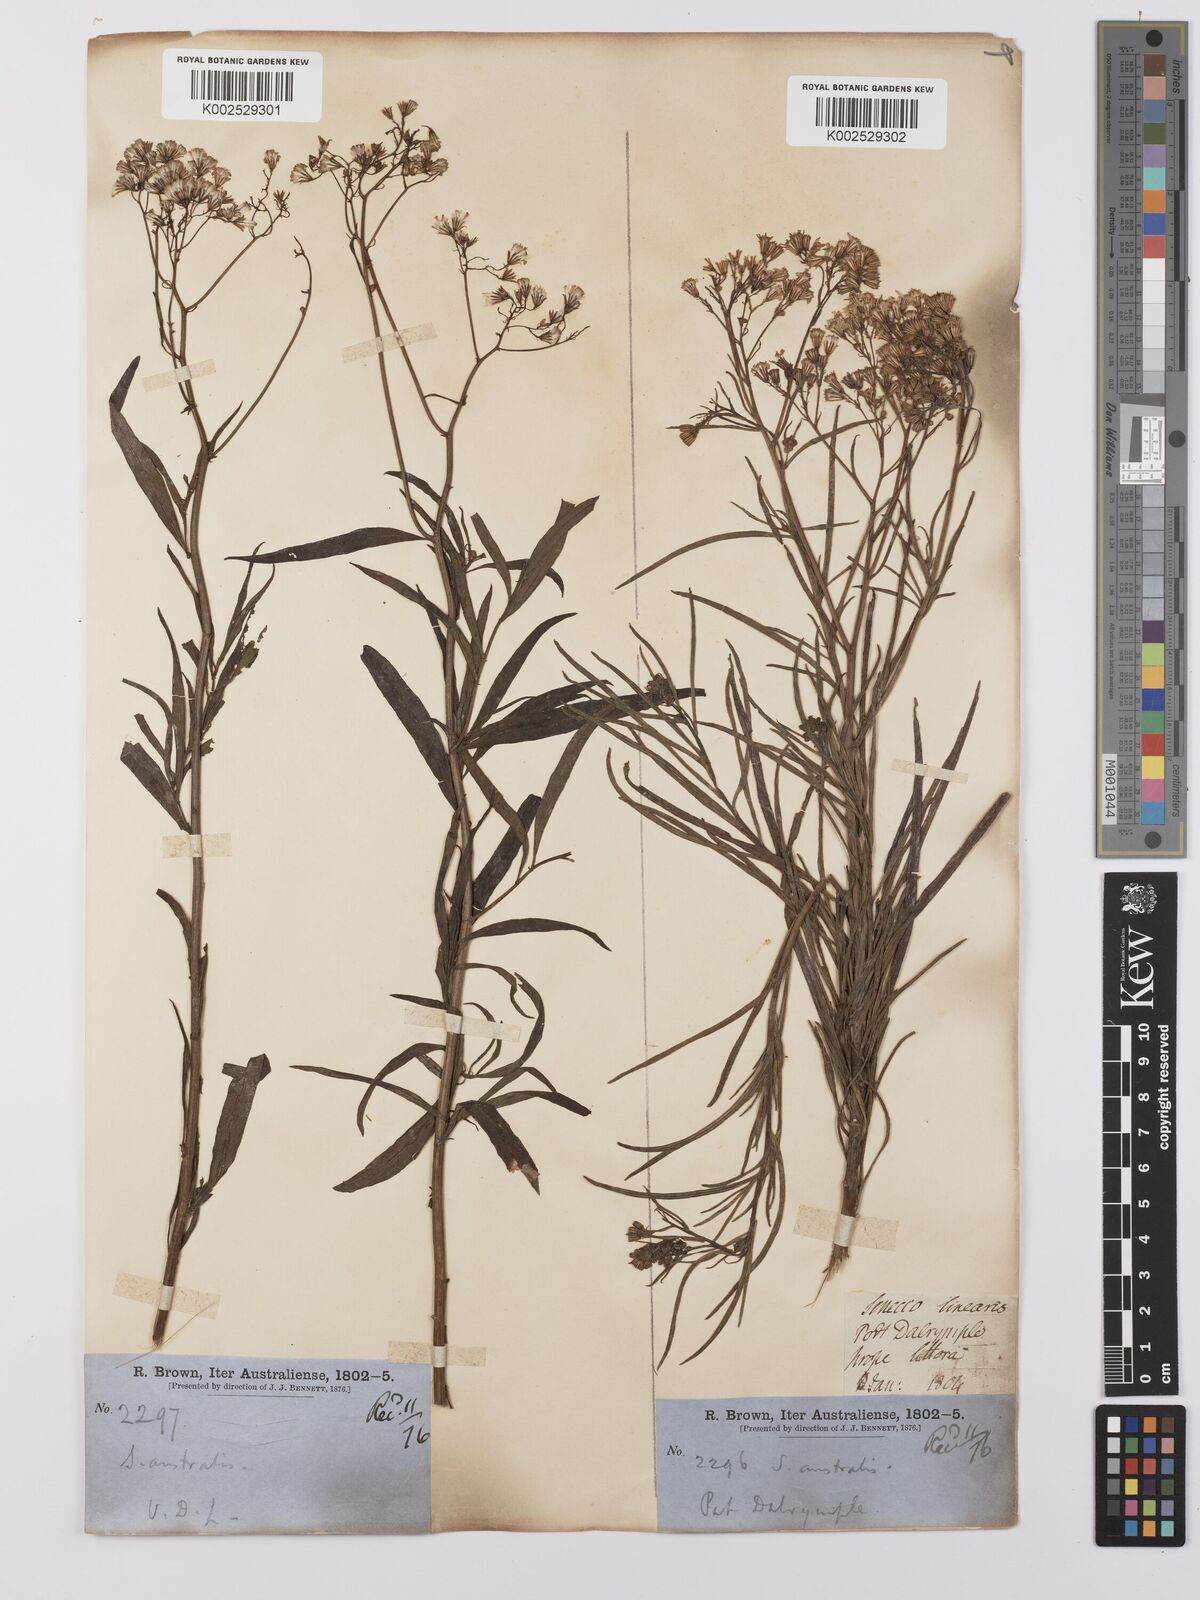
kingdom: Plantae
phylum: Tracheophyta
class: Magnoliopsida
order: Asterales
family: Asteraceae
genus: Senecio
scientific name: Senecio
